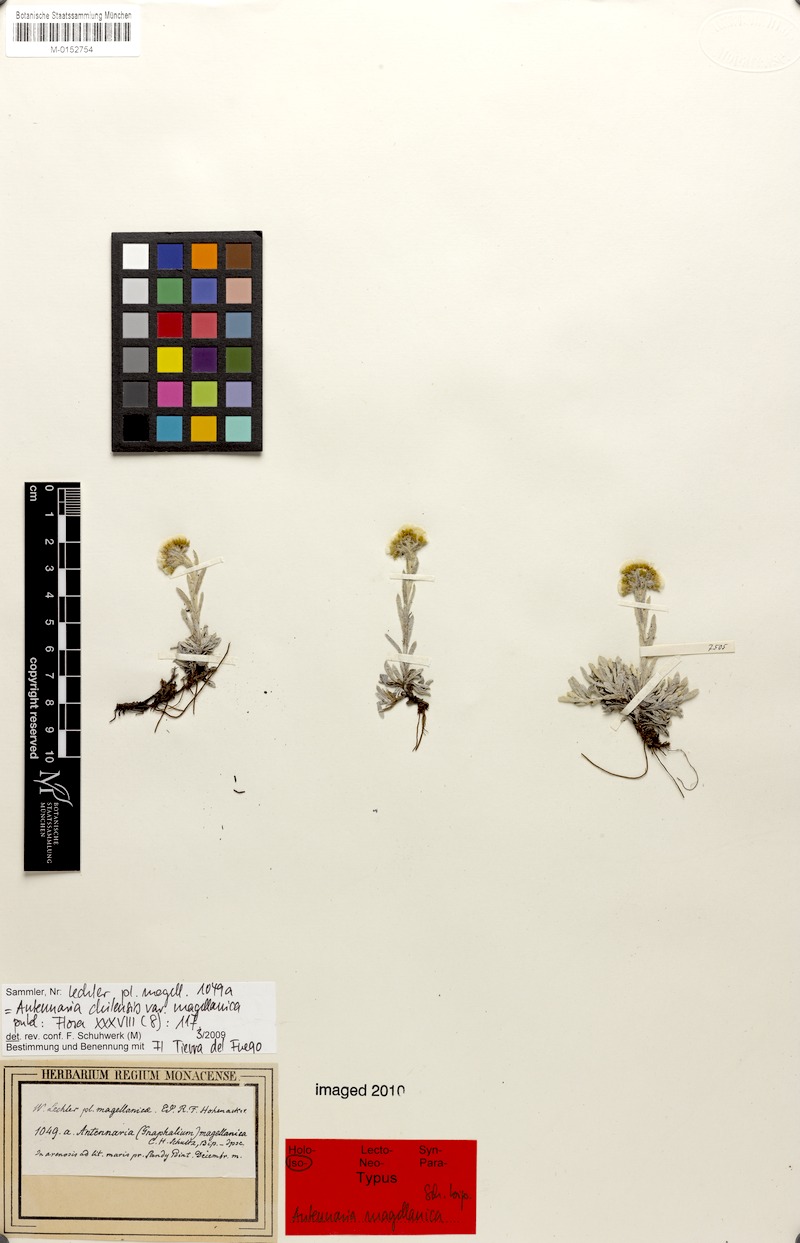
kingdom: Plantae
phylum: Tracheophyta
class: Magnoliopsida
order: Asterales
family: Asteraceae
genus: Antennaria
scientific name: Antennaria chilensis
